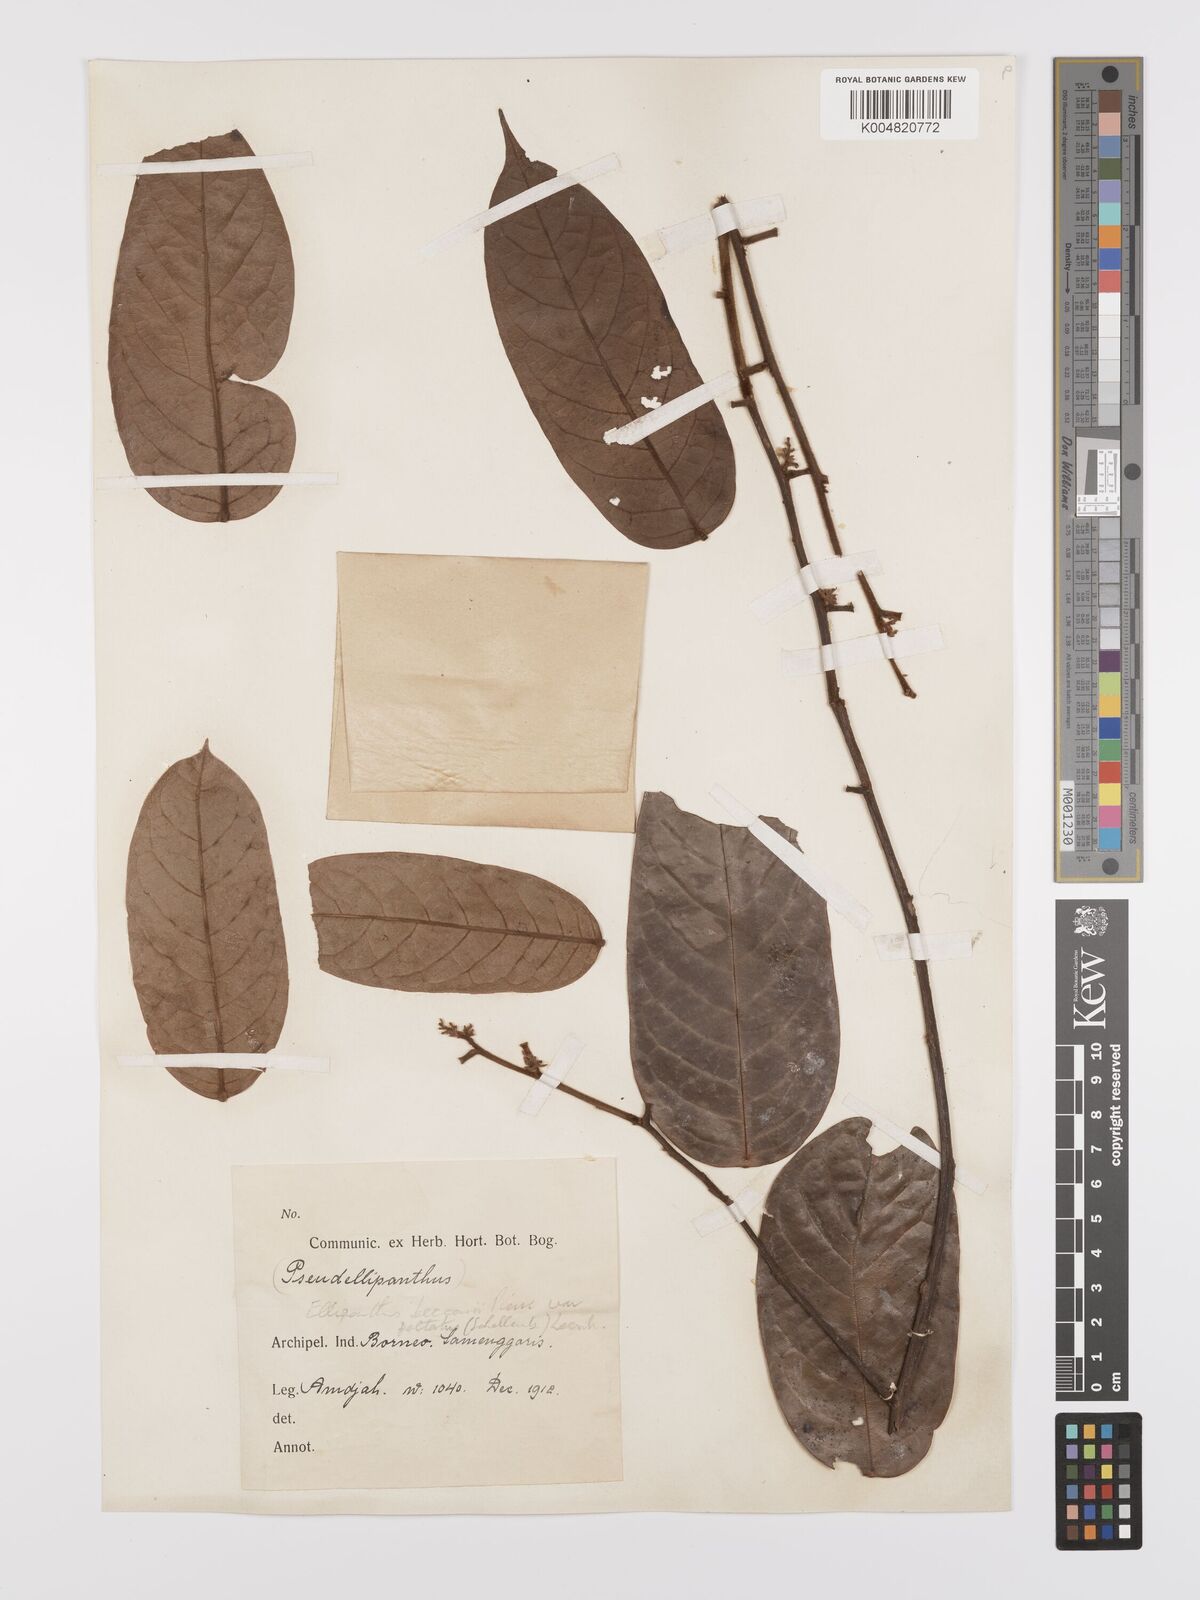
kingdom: Plantae
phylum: Tracheophyta
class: Magnoliopsida
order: Oxalidales
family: Connaraceae
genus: Ellipanthus
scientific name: Ellipanthus beccarii
